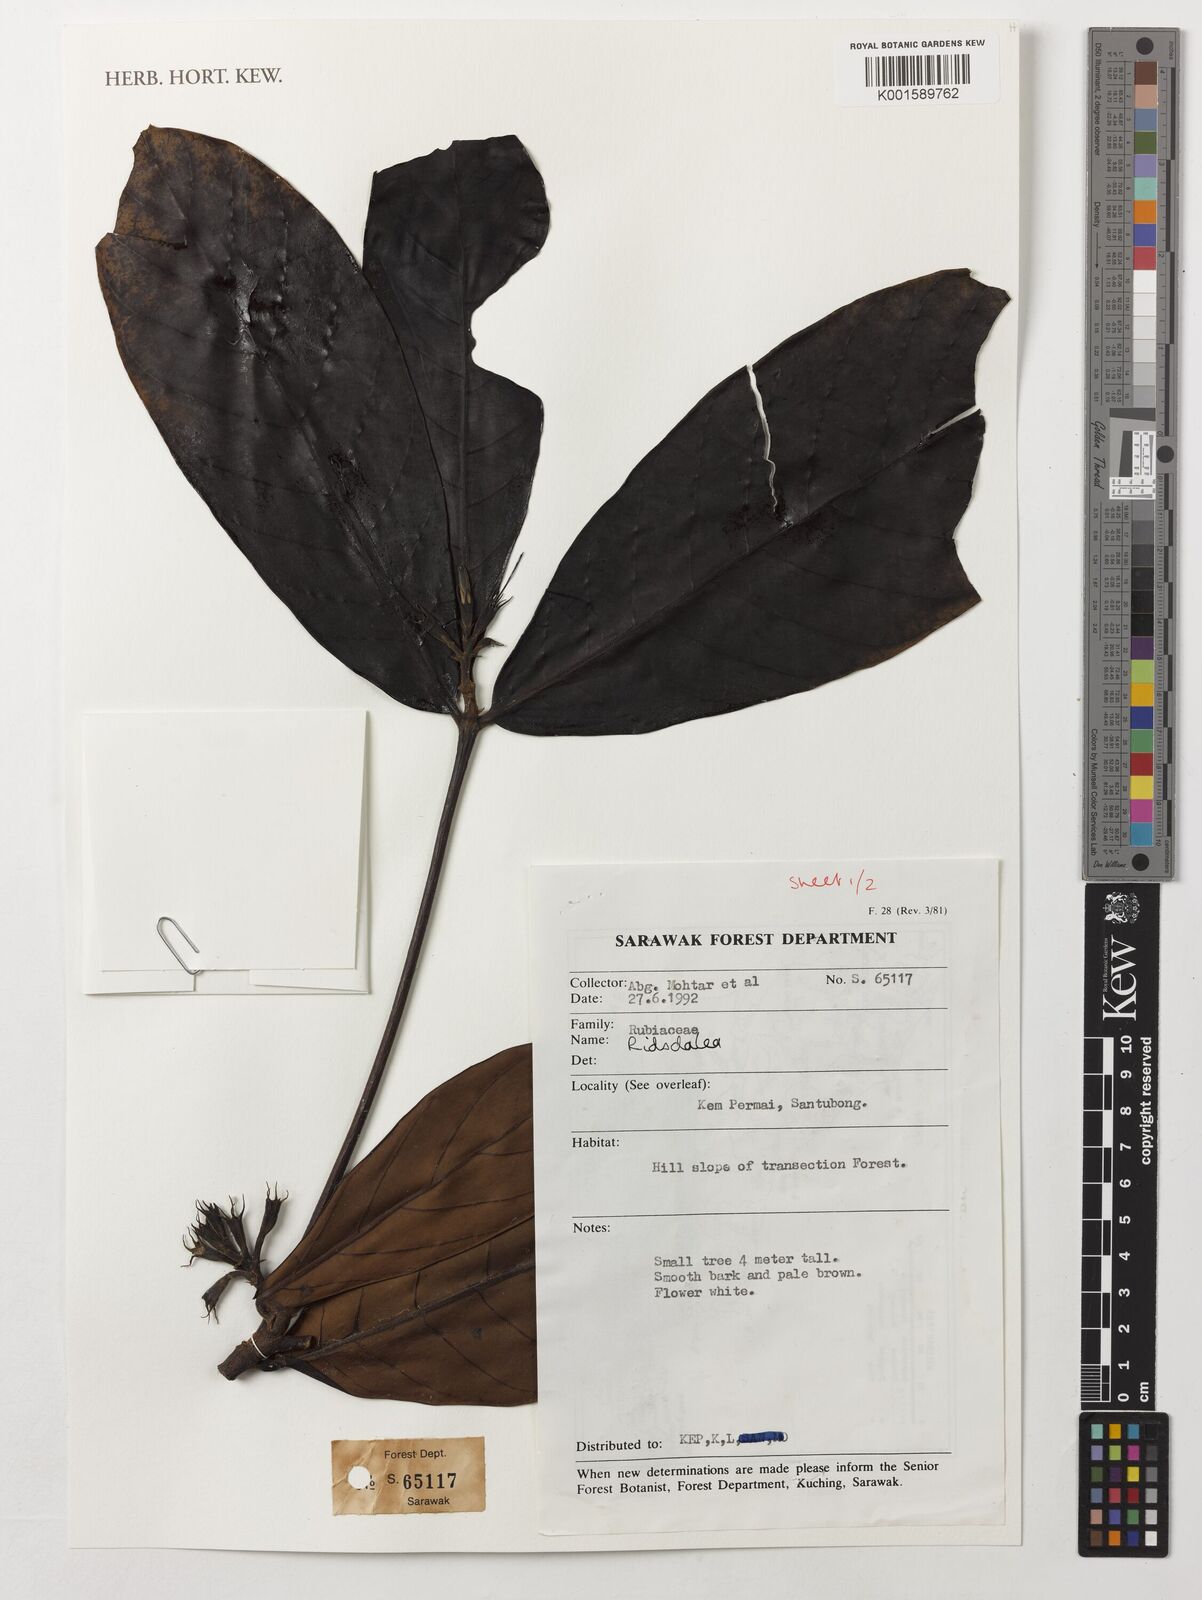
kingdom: Plantae
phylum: Tracheophyta
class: Magnoliopsida
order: Gentianales
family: Rubiaceae
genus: Ridsdalea
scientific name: Ridsdalea
